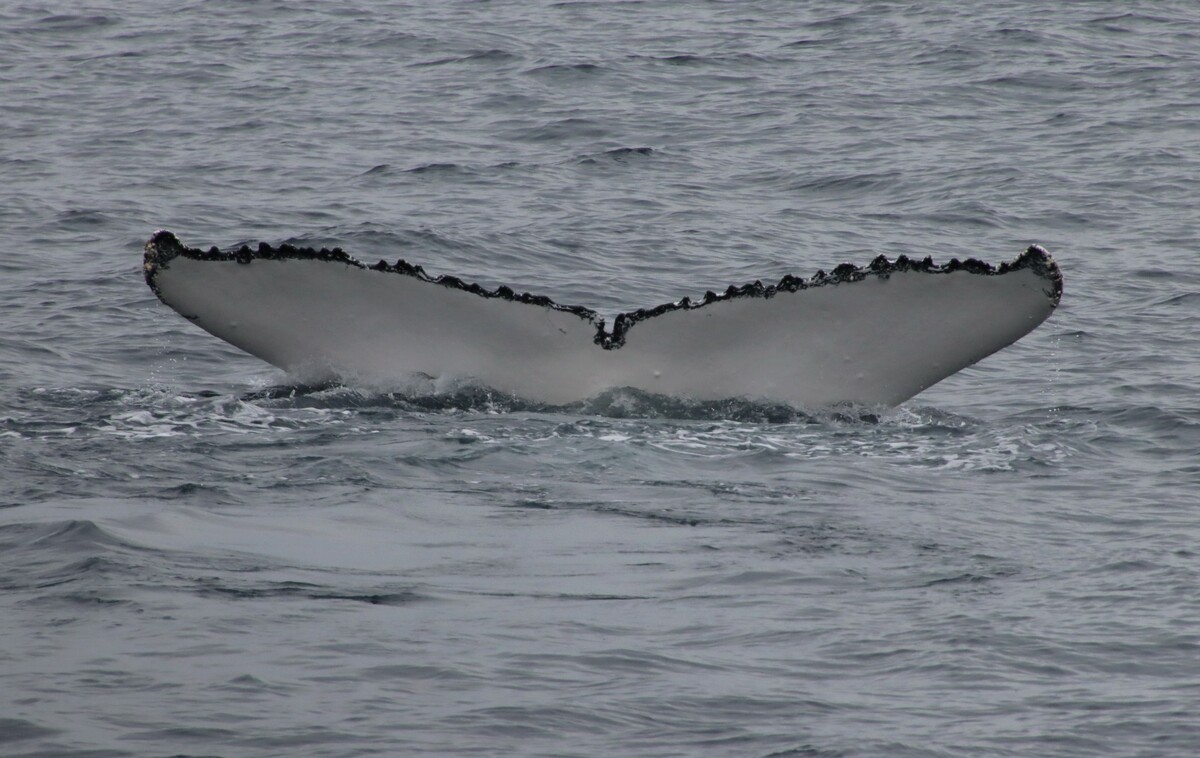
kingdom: Animalia
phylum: Chordata
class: Mammalia
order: Cetacea
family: Balaenidae
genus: Eubalaena
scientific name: Eubalaena glacialis
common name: North Atlantic Right Whale
